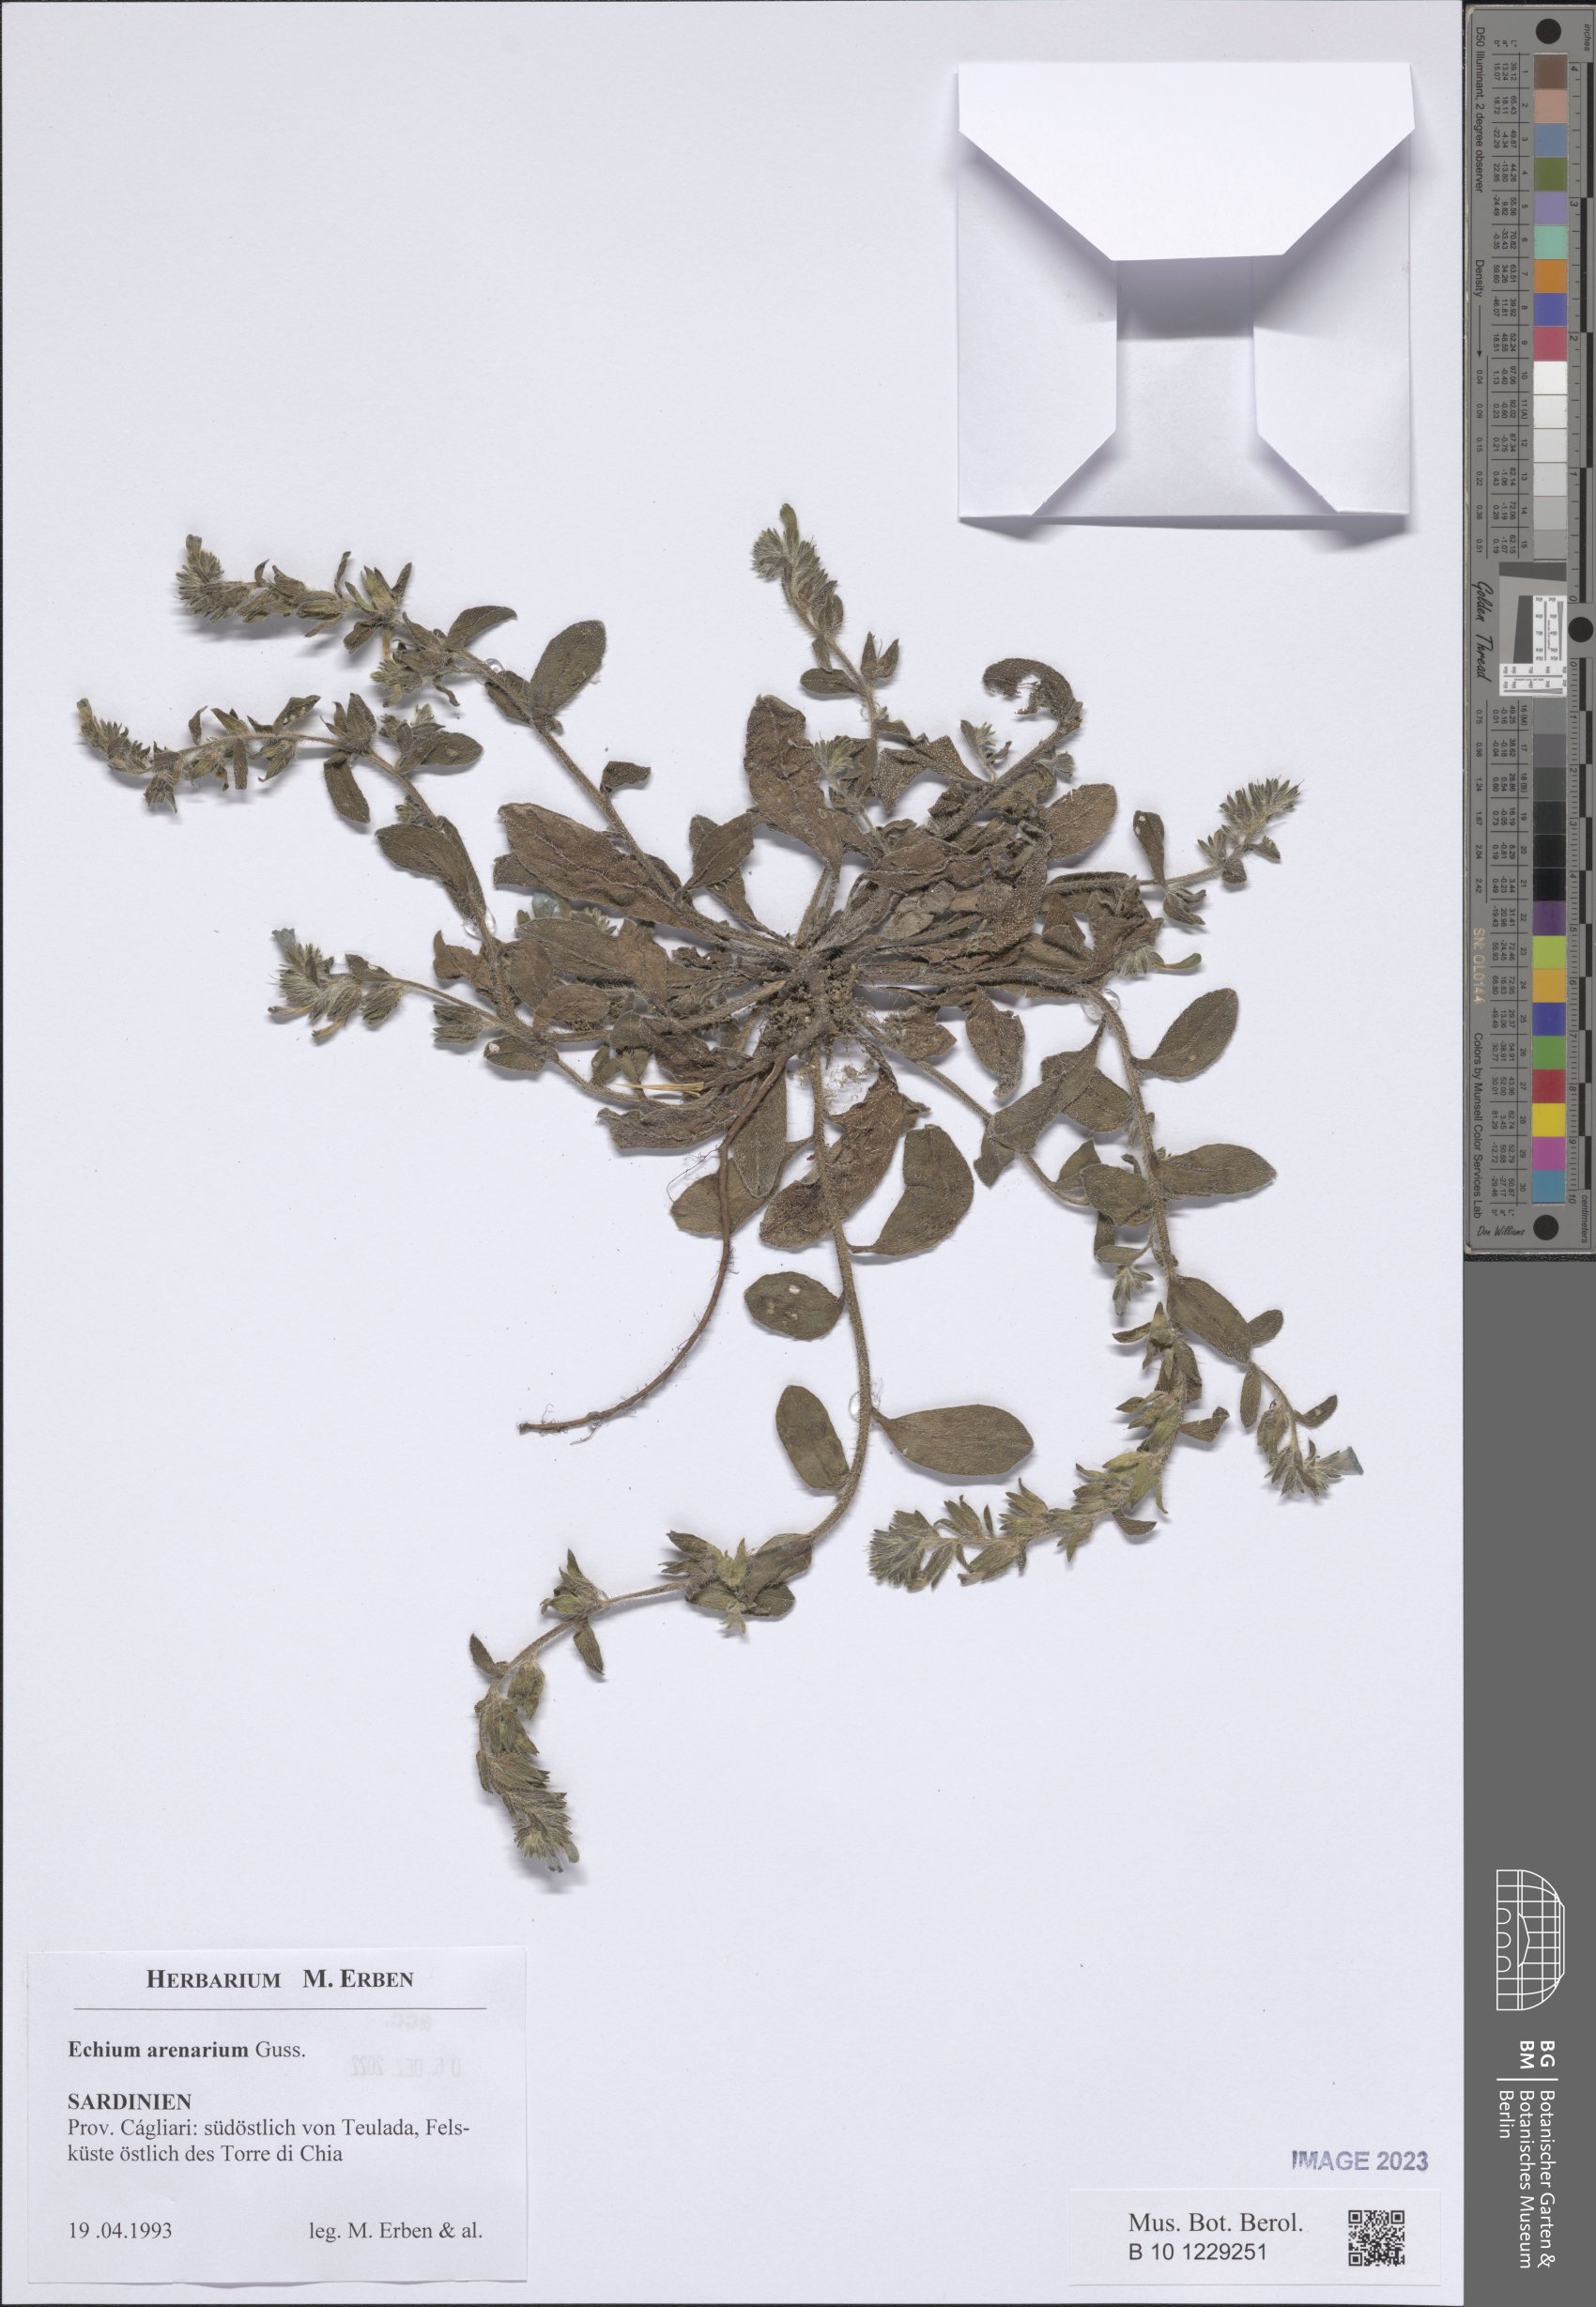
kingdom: Plantae
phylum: Tracheophyta
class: Magnoliopsida
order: Boraginales
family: Boraginaceae
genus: Echium
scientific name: Echium arenarium
